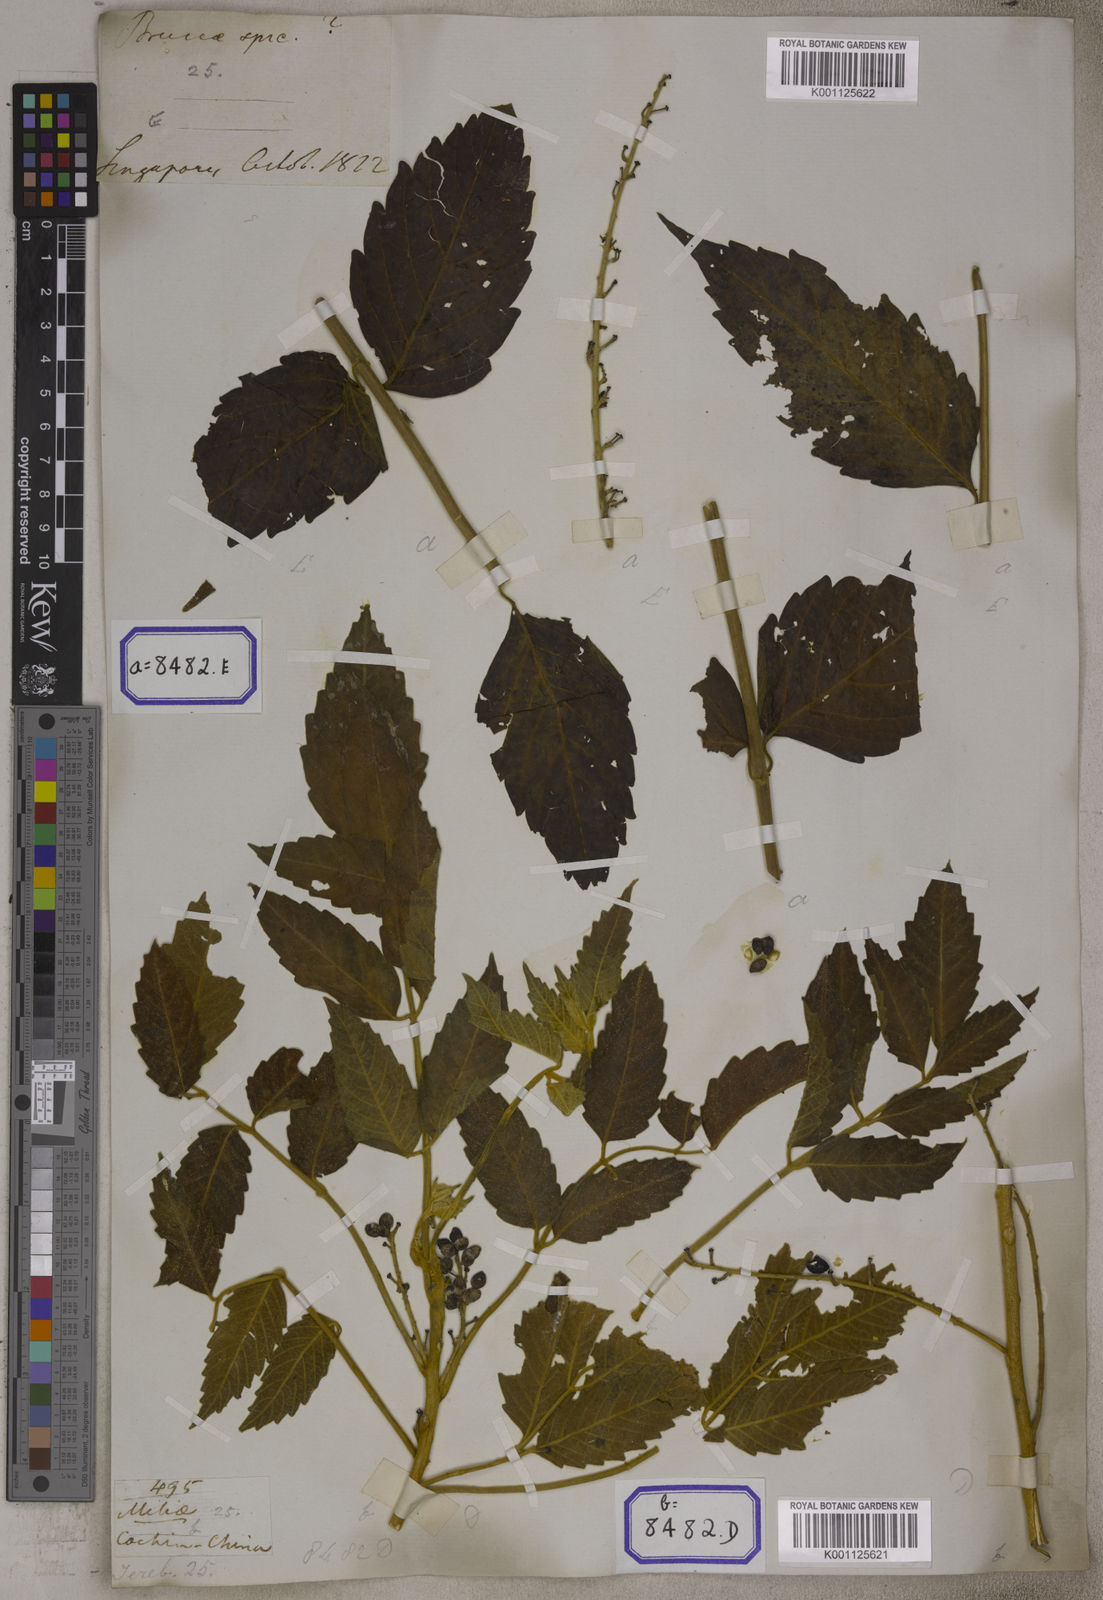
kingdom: Plantae
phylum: Tracheophyta
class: Magnoliopsida
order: Sapindales
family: Simaroubaceae
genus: Brucea
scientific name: Brucea javanica
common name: Macassar kernels
